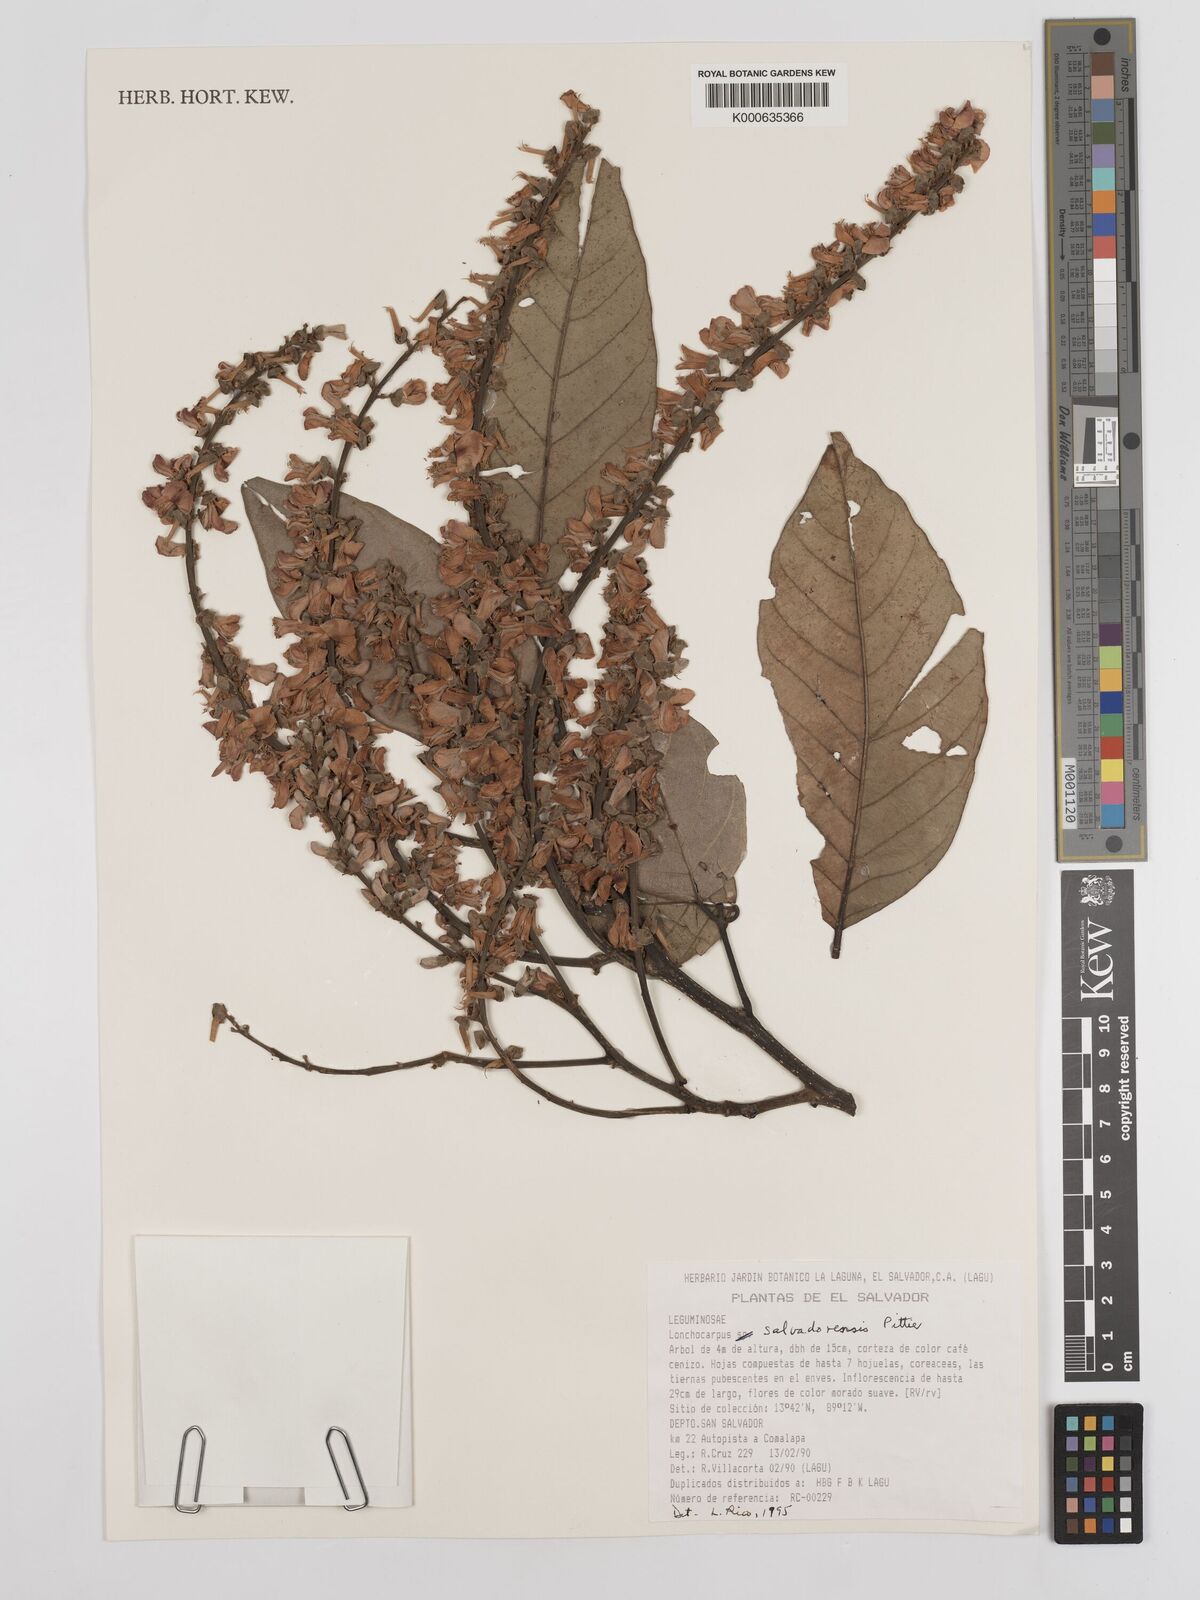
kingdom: Plantae
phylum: Tracheophyta
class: Magnoliopsida
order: Fabales
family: Fabaceae
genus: Lonchocarpus
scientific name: Lonchocarpus salvadorensis
